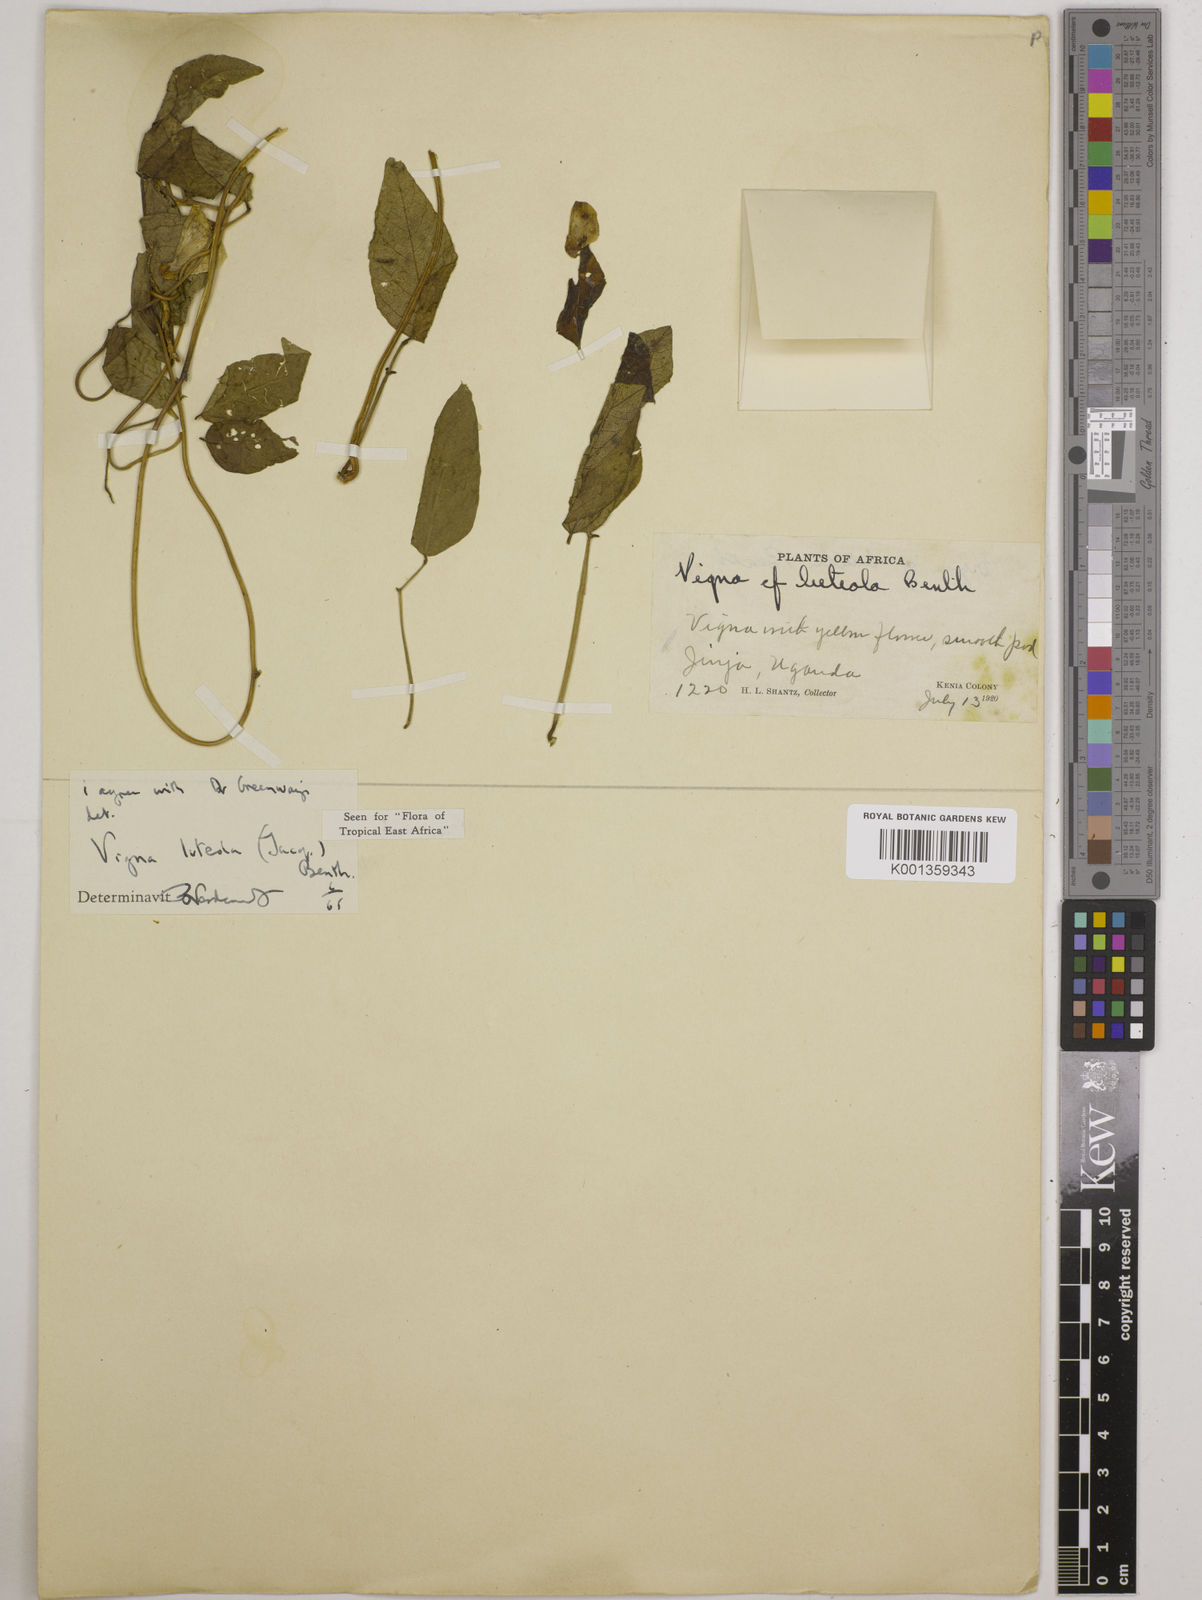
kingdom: Plantae
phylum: Tracheophyta
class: Magnoliopsida
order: Fabales
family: Fabaceae
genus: Vigna
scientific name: Vigna luteola
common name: Hairypod cowpea
